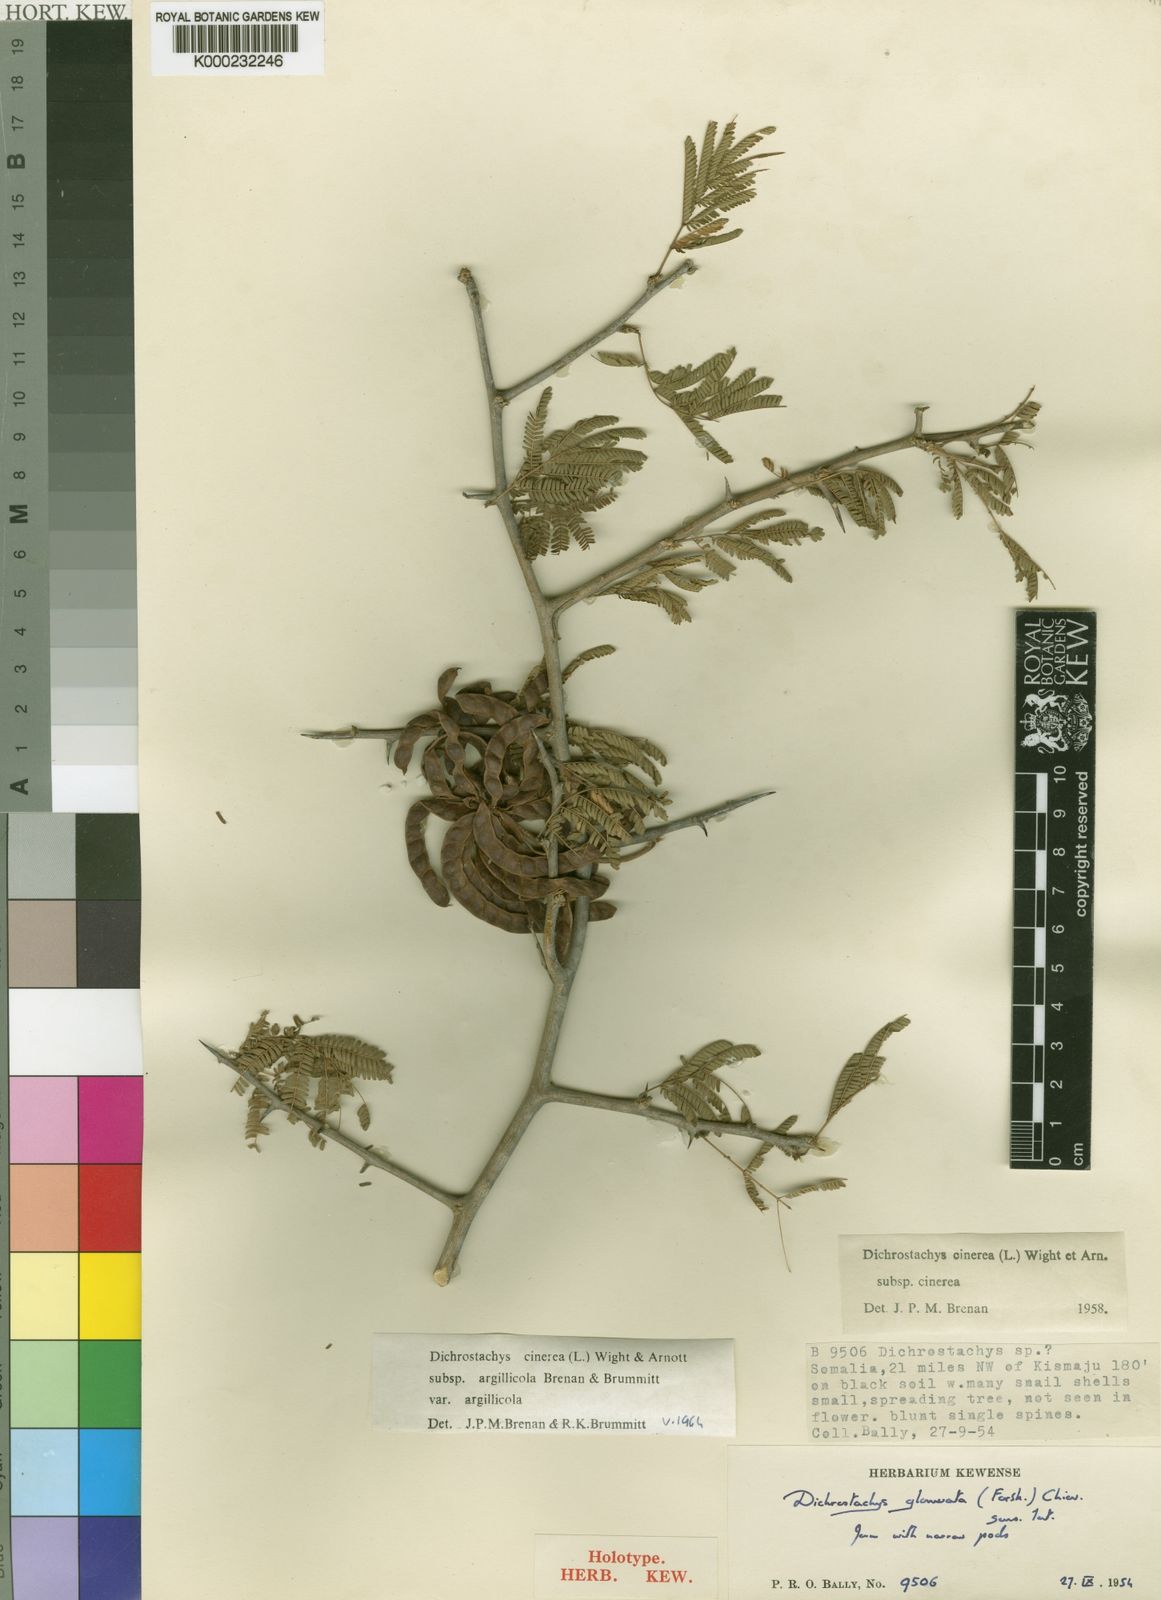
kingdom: Plantae
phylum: Tracheophyta
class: Magnoliopsida
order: Fabales
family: Fabaceae
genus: Dichrostachys
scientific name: Dichrostachys cinerea
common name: Sicklebush
